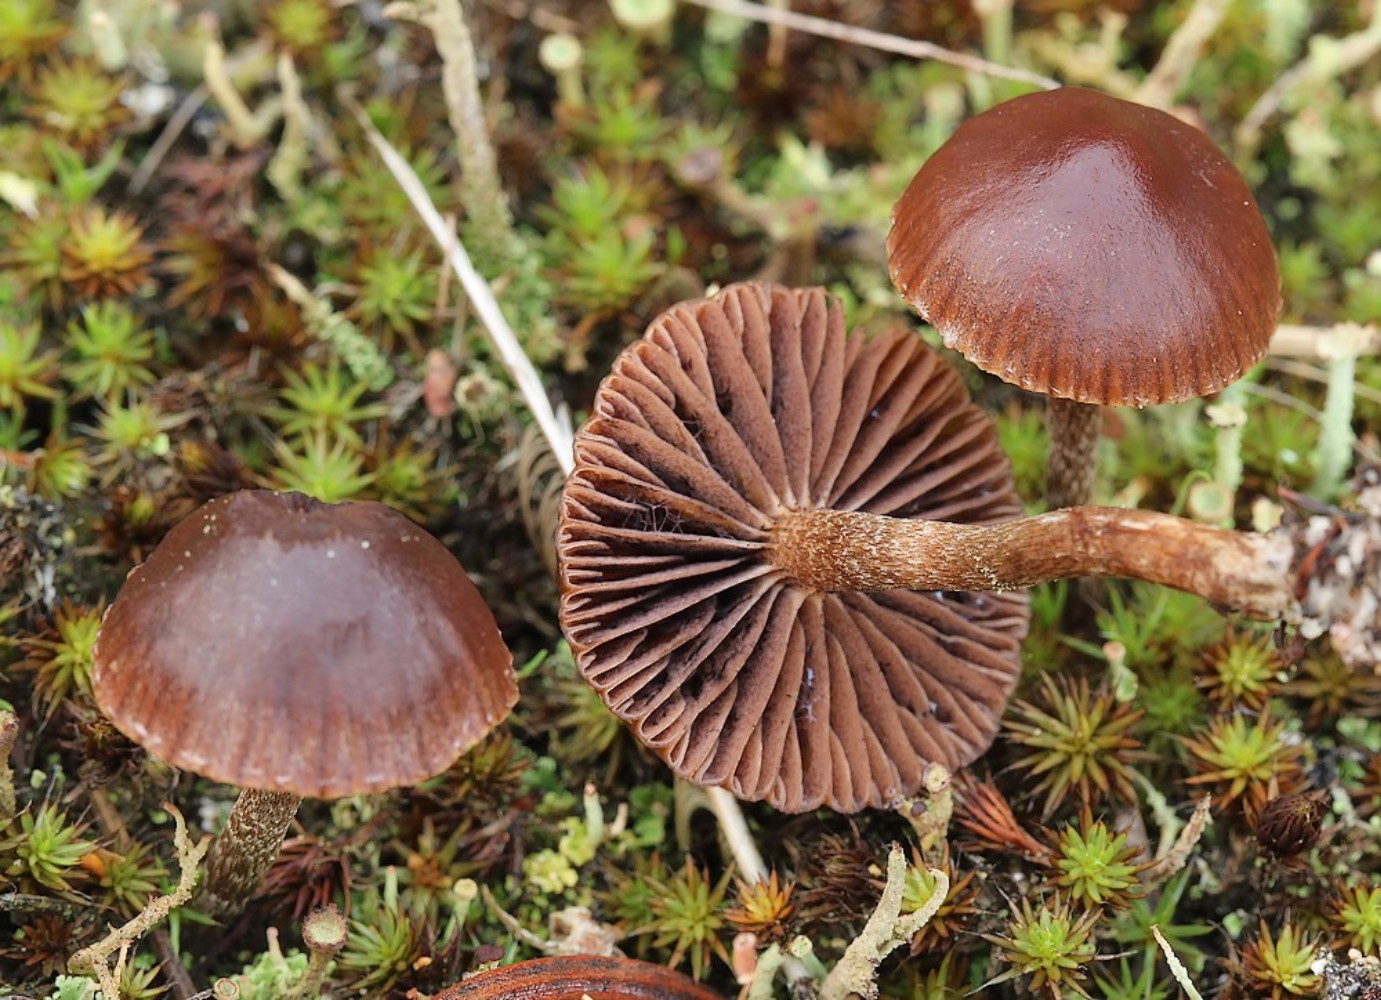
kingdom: Fungi
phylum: Basidiomycota
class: Agaricomycetes
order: Agaricales
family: Strophariaceae
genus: Deconica
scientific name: Deconica montana
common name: rødbrun stråhat
